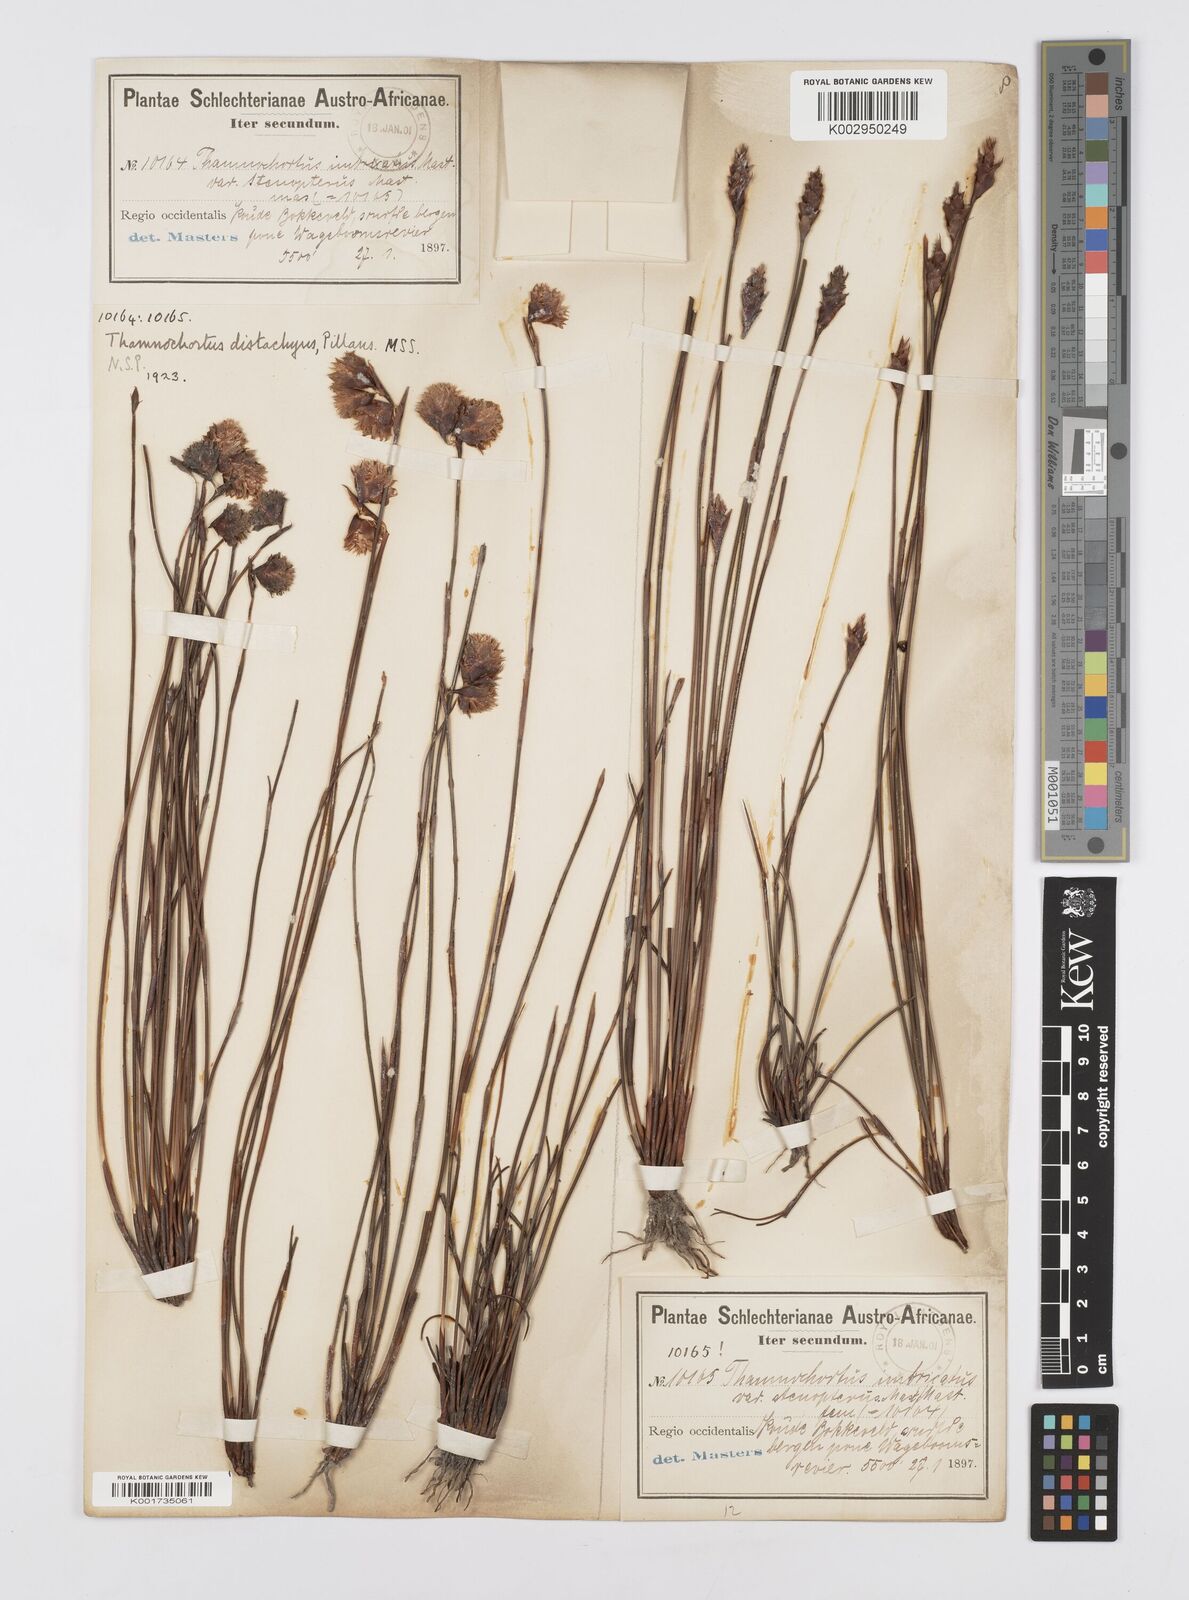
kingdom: Plantae
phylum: Tracheophyta
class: Liliopsida
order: Poales
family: Restionaceae
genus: Staberoha
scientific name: Staberoha aemula
